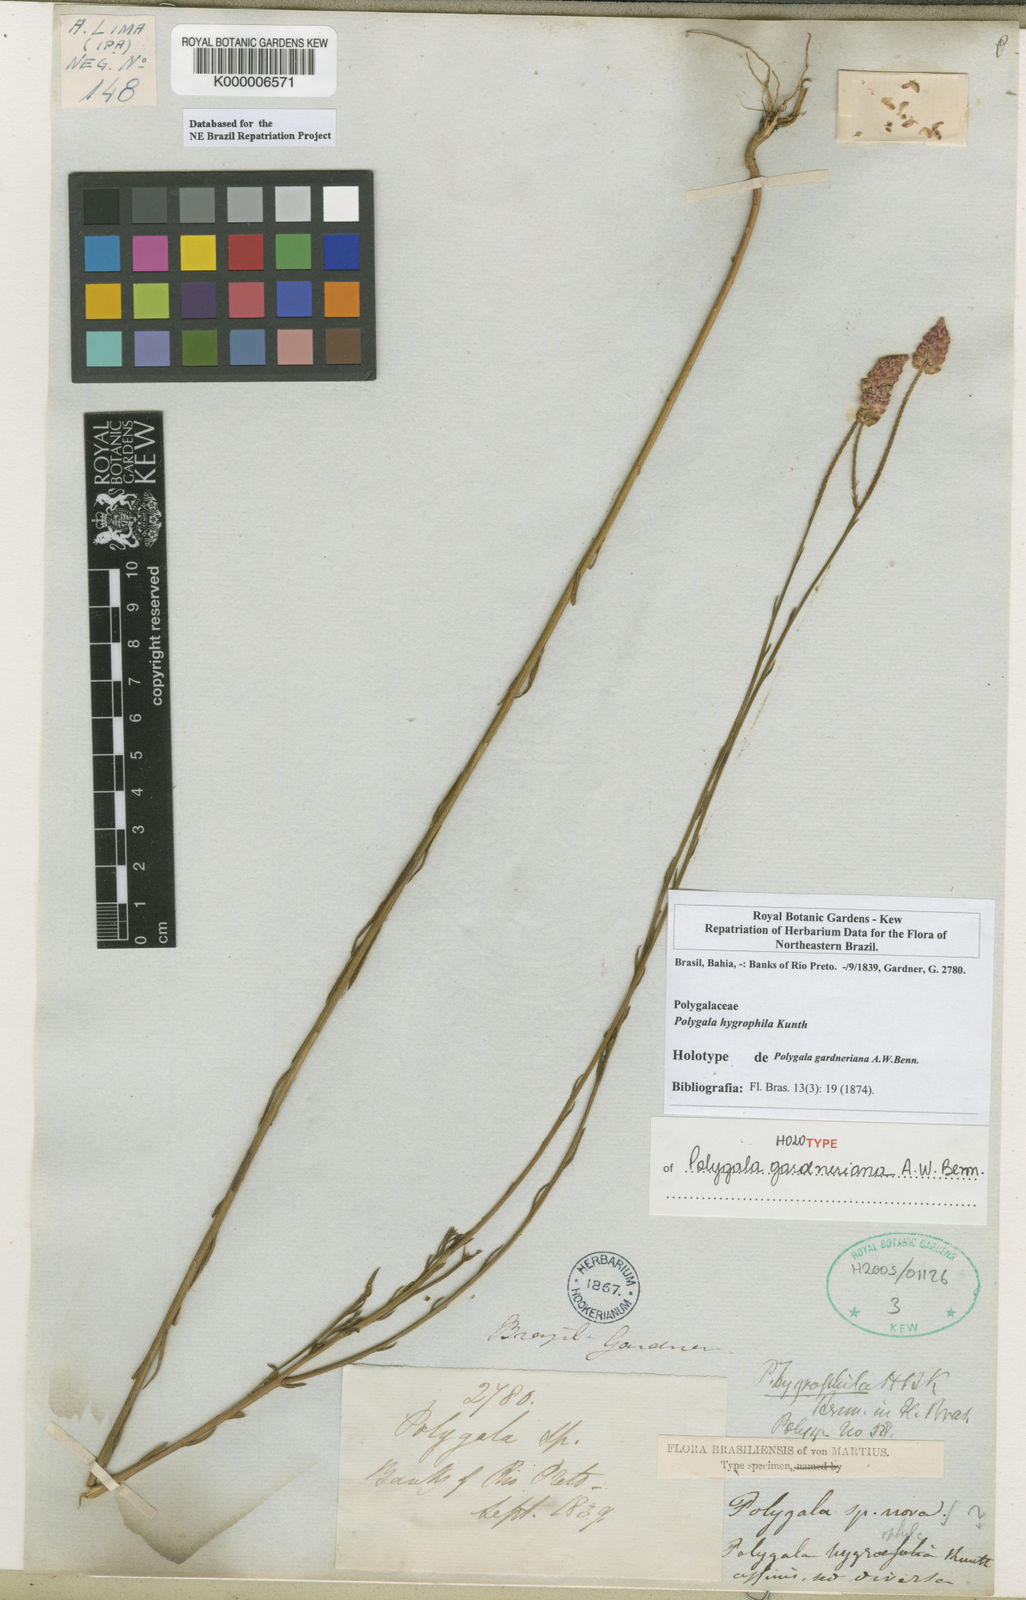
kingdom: Plantae
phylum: Tracheophyta
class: Magnoliopsida
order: Fabales
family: Polygalaceae
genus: Polygala
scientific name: Polygala hygrophila
